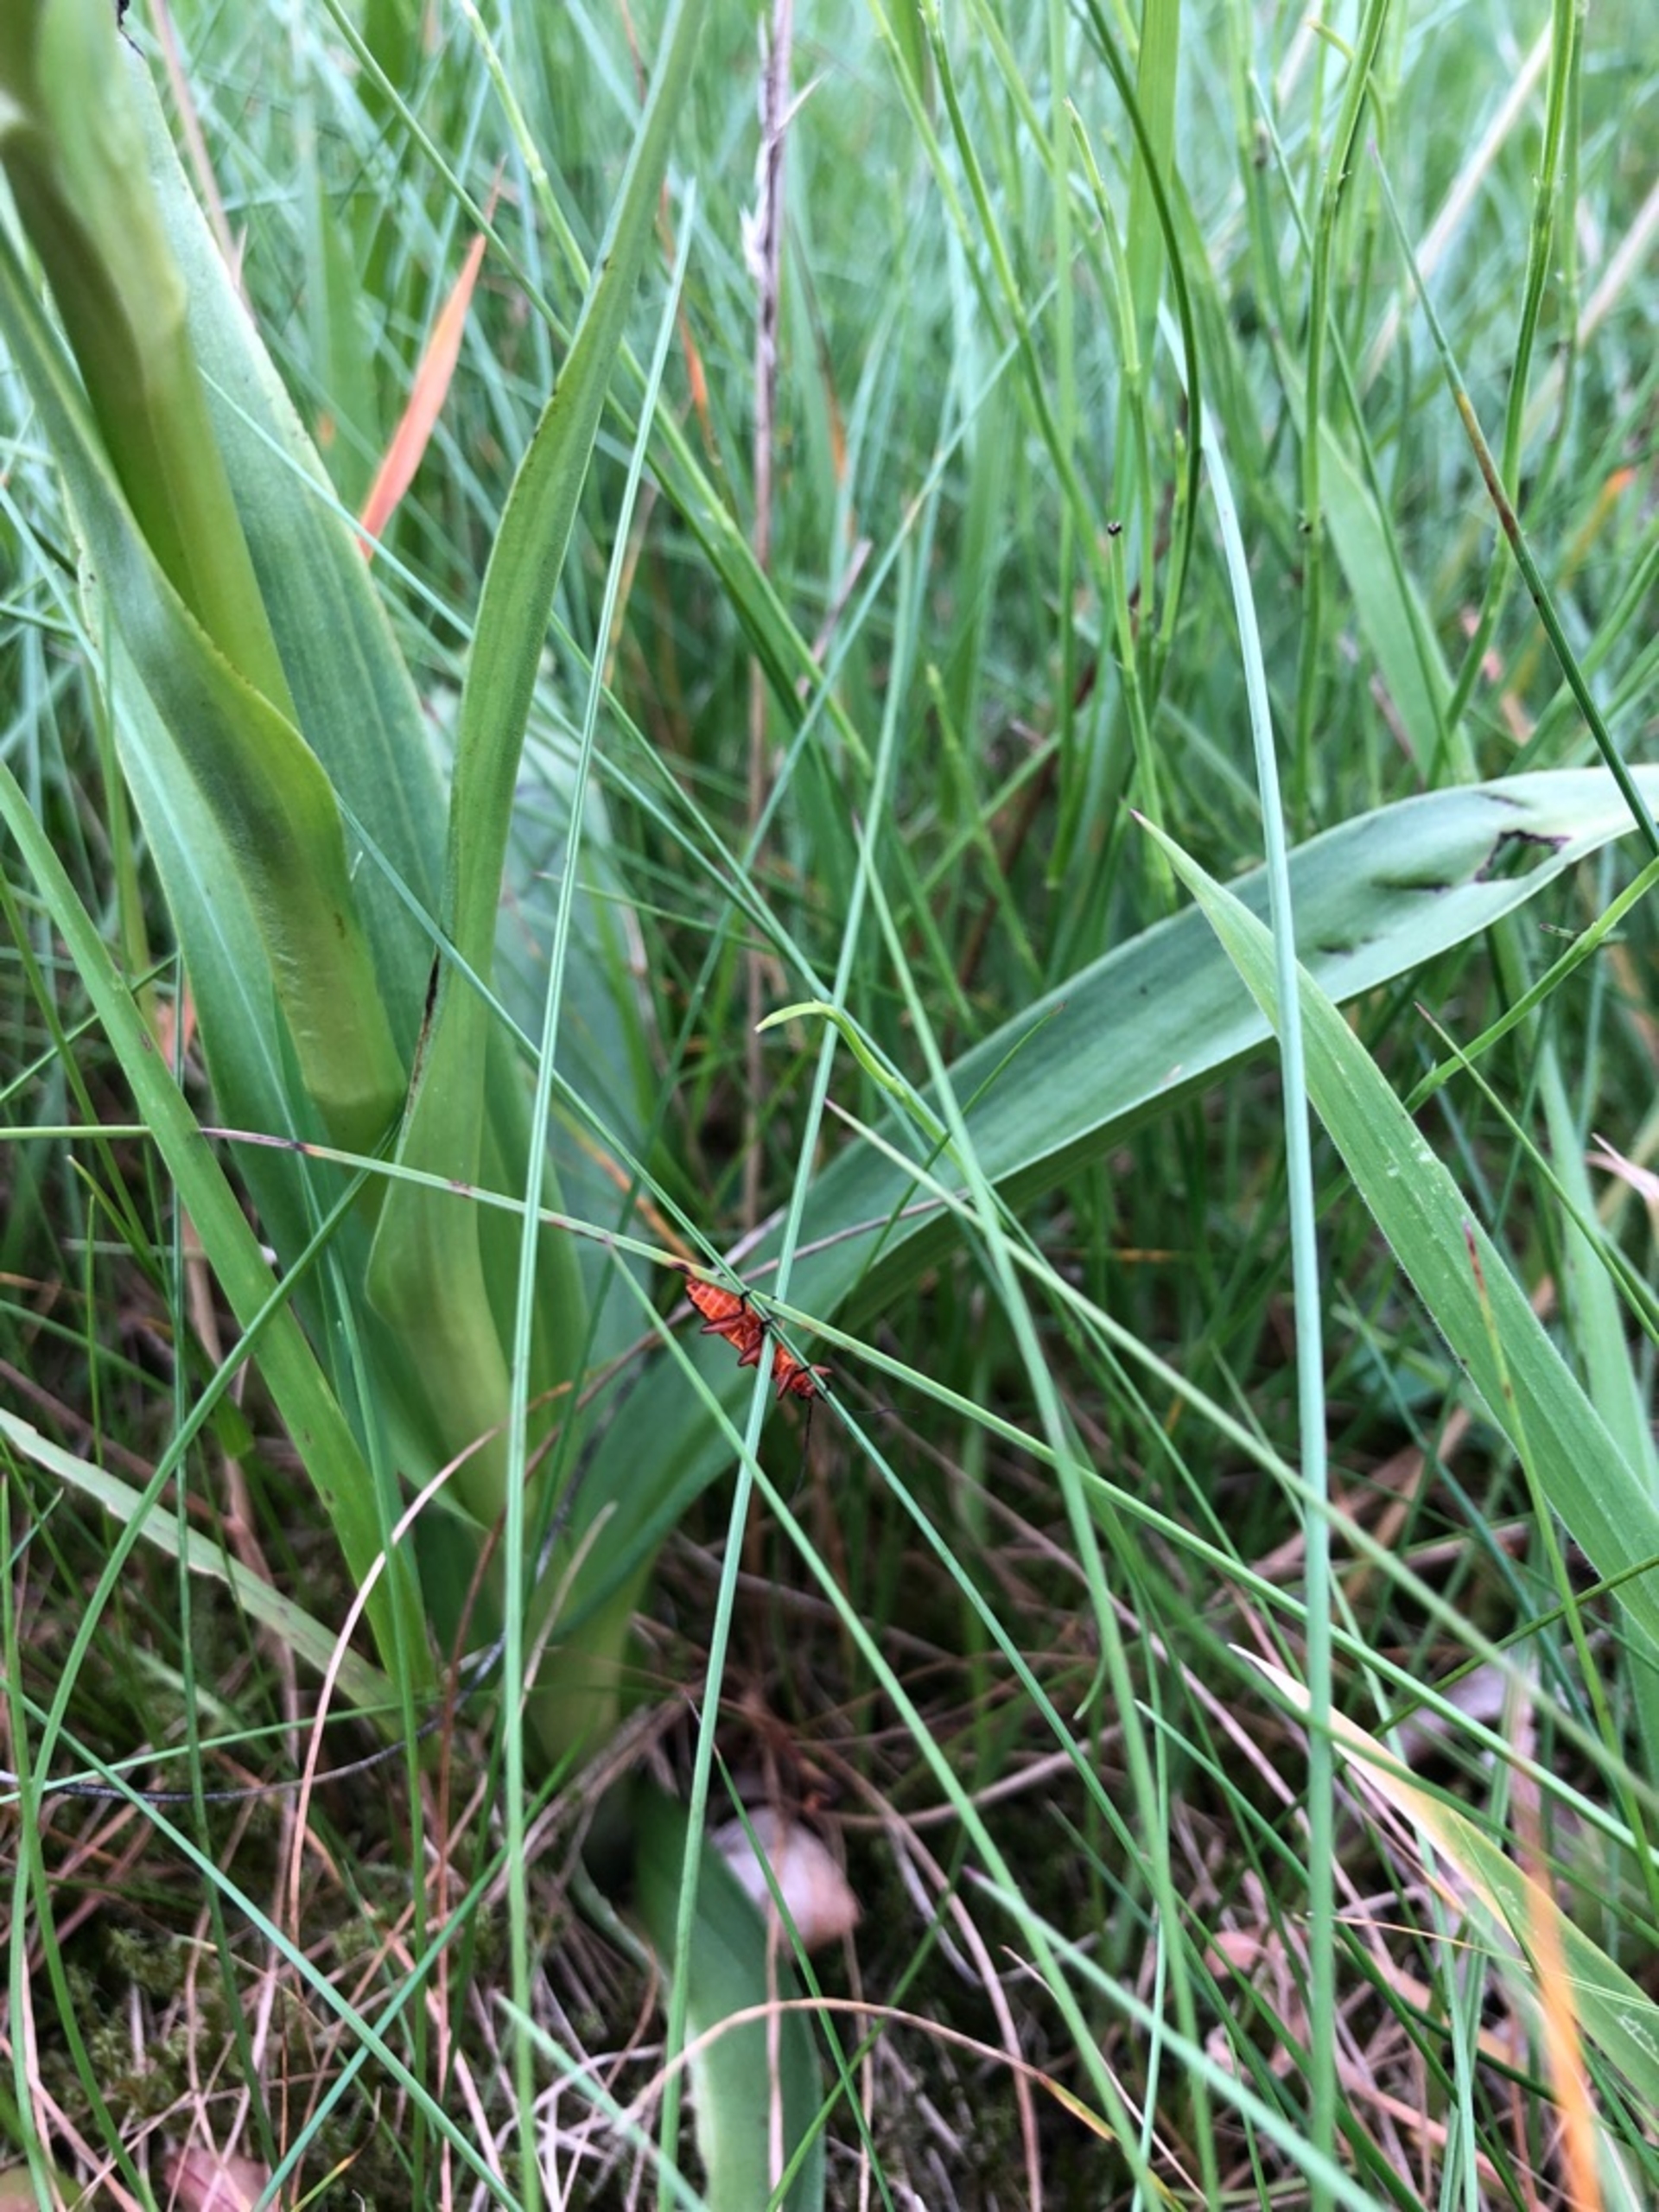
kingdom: Plantae
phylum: Tracheophyta
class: Liliopsida
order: Asparagales
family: Orchidaceae
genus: Dactylorhiza
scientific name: Dactylorhiza majalis
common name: Maj-gøgeurt
